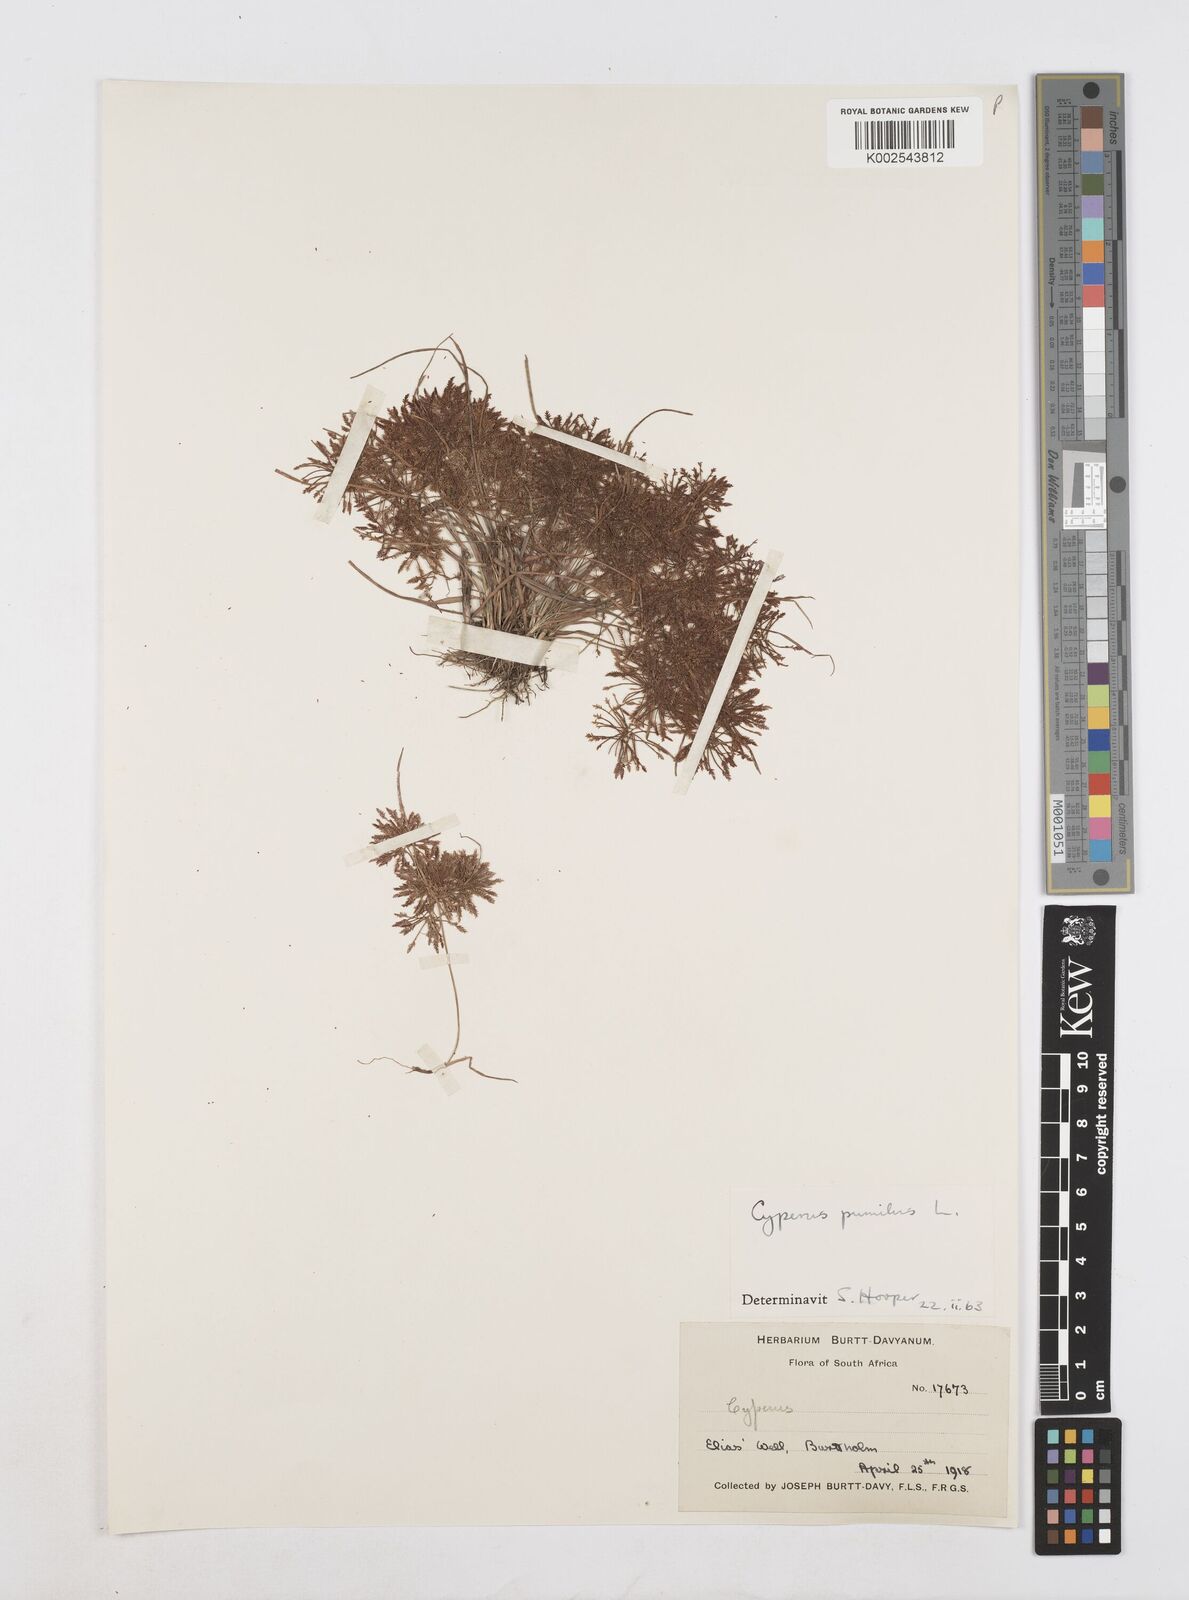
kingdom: Plantae
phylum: Tracheophyta
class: Liliopsida
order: Poales
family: Cyperaceae
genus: Cyperus
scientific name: Cyperus pumilus
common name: Low flatsedge
